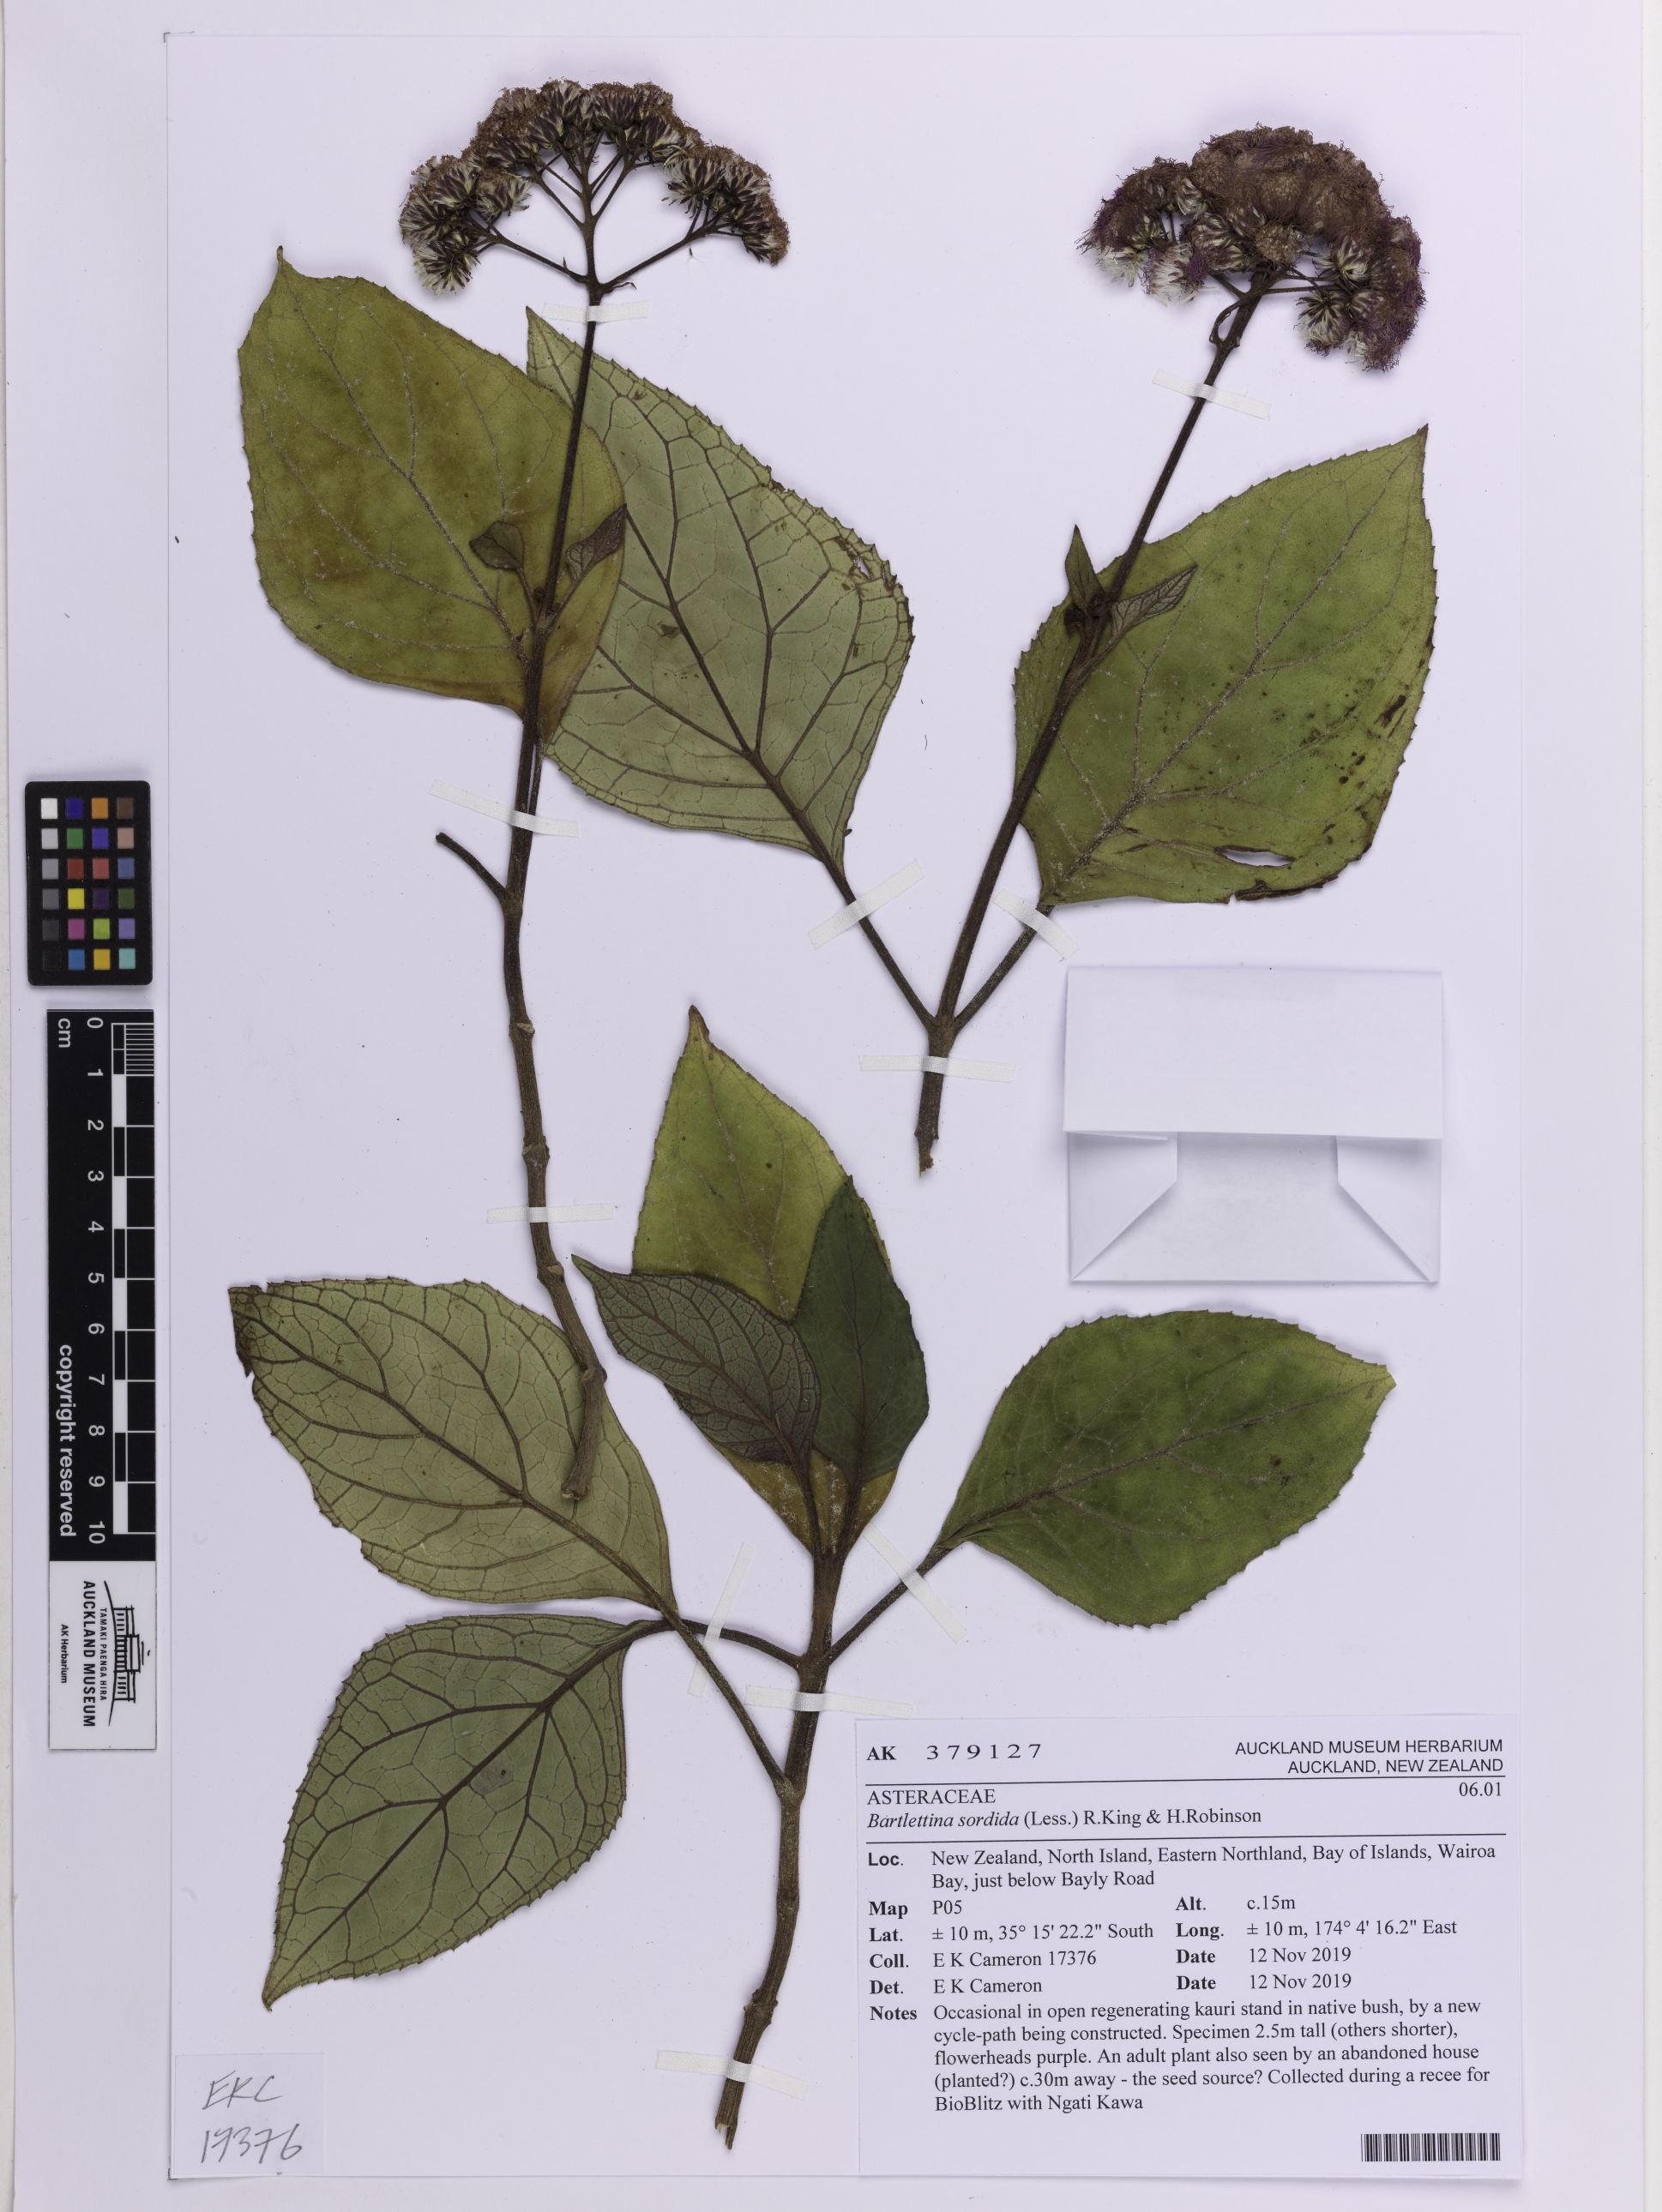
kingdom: Plantae
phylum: Tracheophyta
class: Magnoliopsida
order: Asterales
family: Asteraceae
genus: Bartlettina
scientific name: Bartlettina sordida
